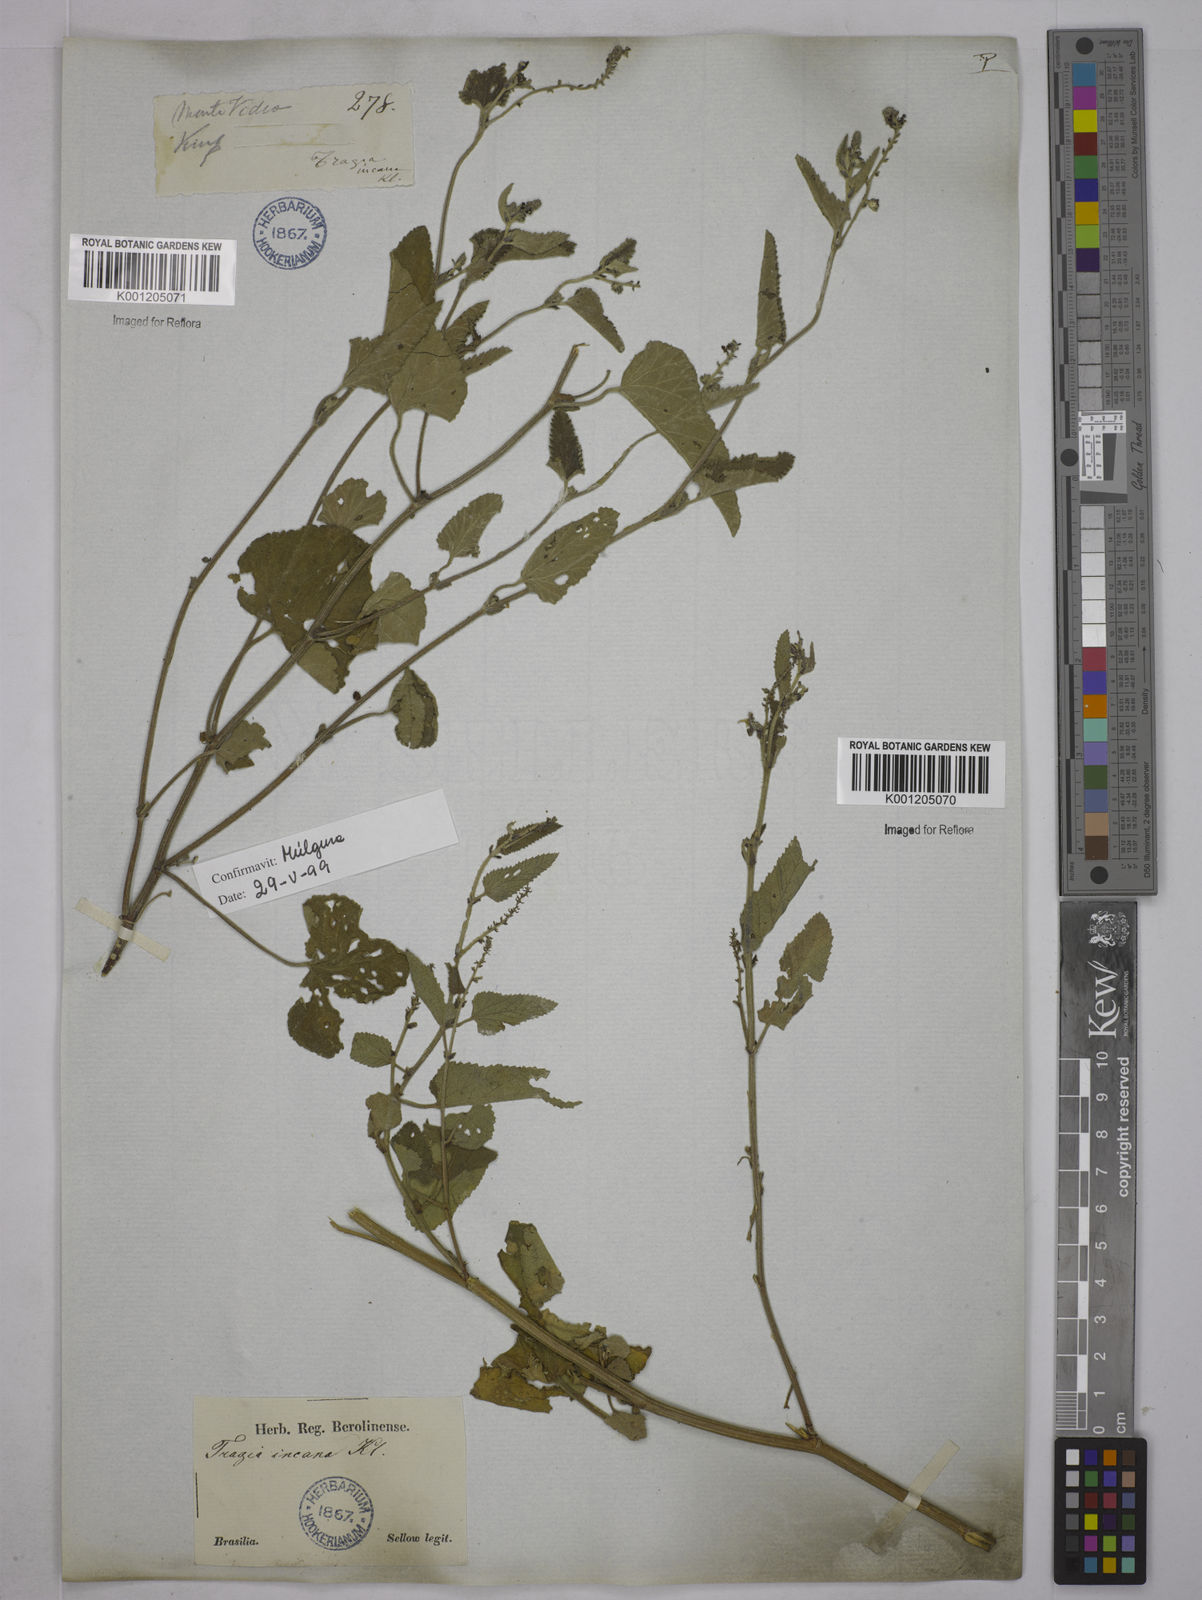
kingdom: Plantae
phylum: Tracheophyta
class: Magnoliopsida
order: Malpighiales
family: Euphorbiaceae
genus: Tragia
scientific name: Tragia
